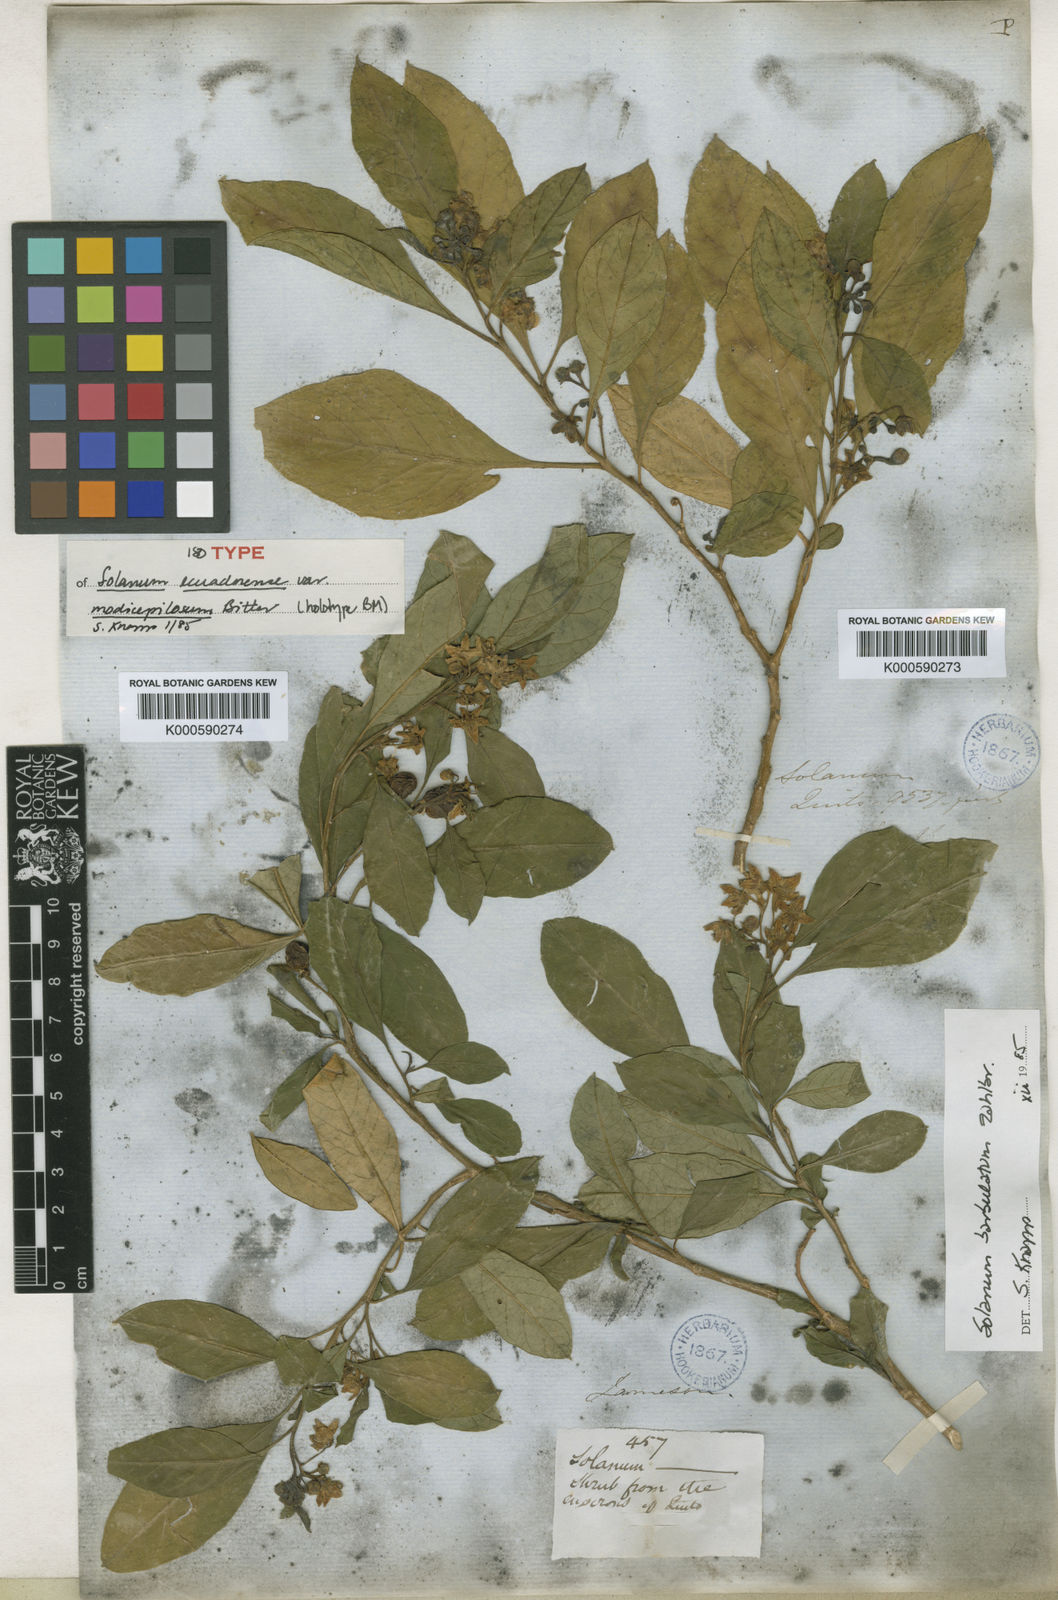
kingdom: Plantae
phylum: Tracheophyta
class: Magnoliopsida
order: Solanales
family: Solanaceae
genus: Solanum
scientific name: Solanum barbulatum
